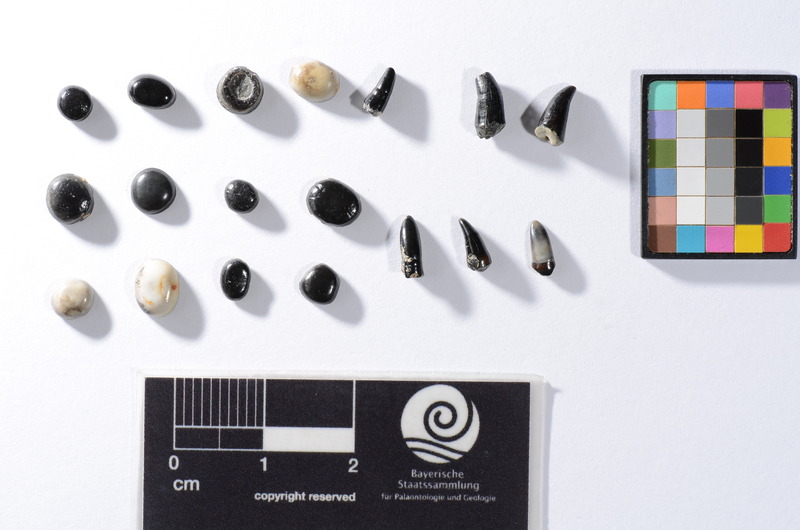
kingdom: Animalia
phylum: Chordata
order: Perciformes
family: Sparidae
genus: Chrysophrys
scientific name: Chrysophrys
